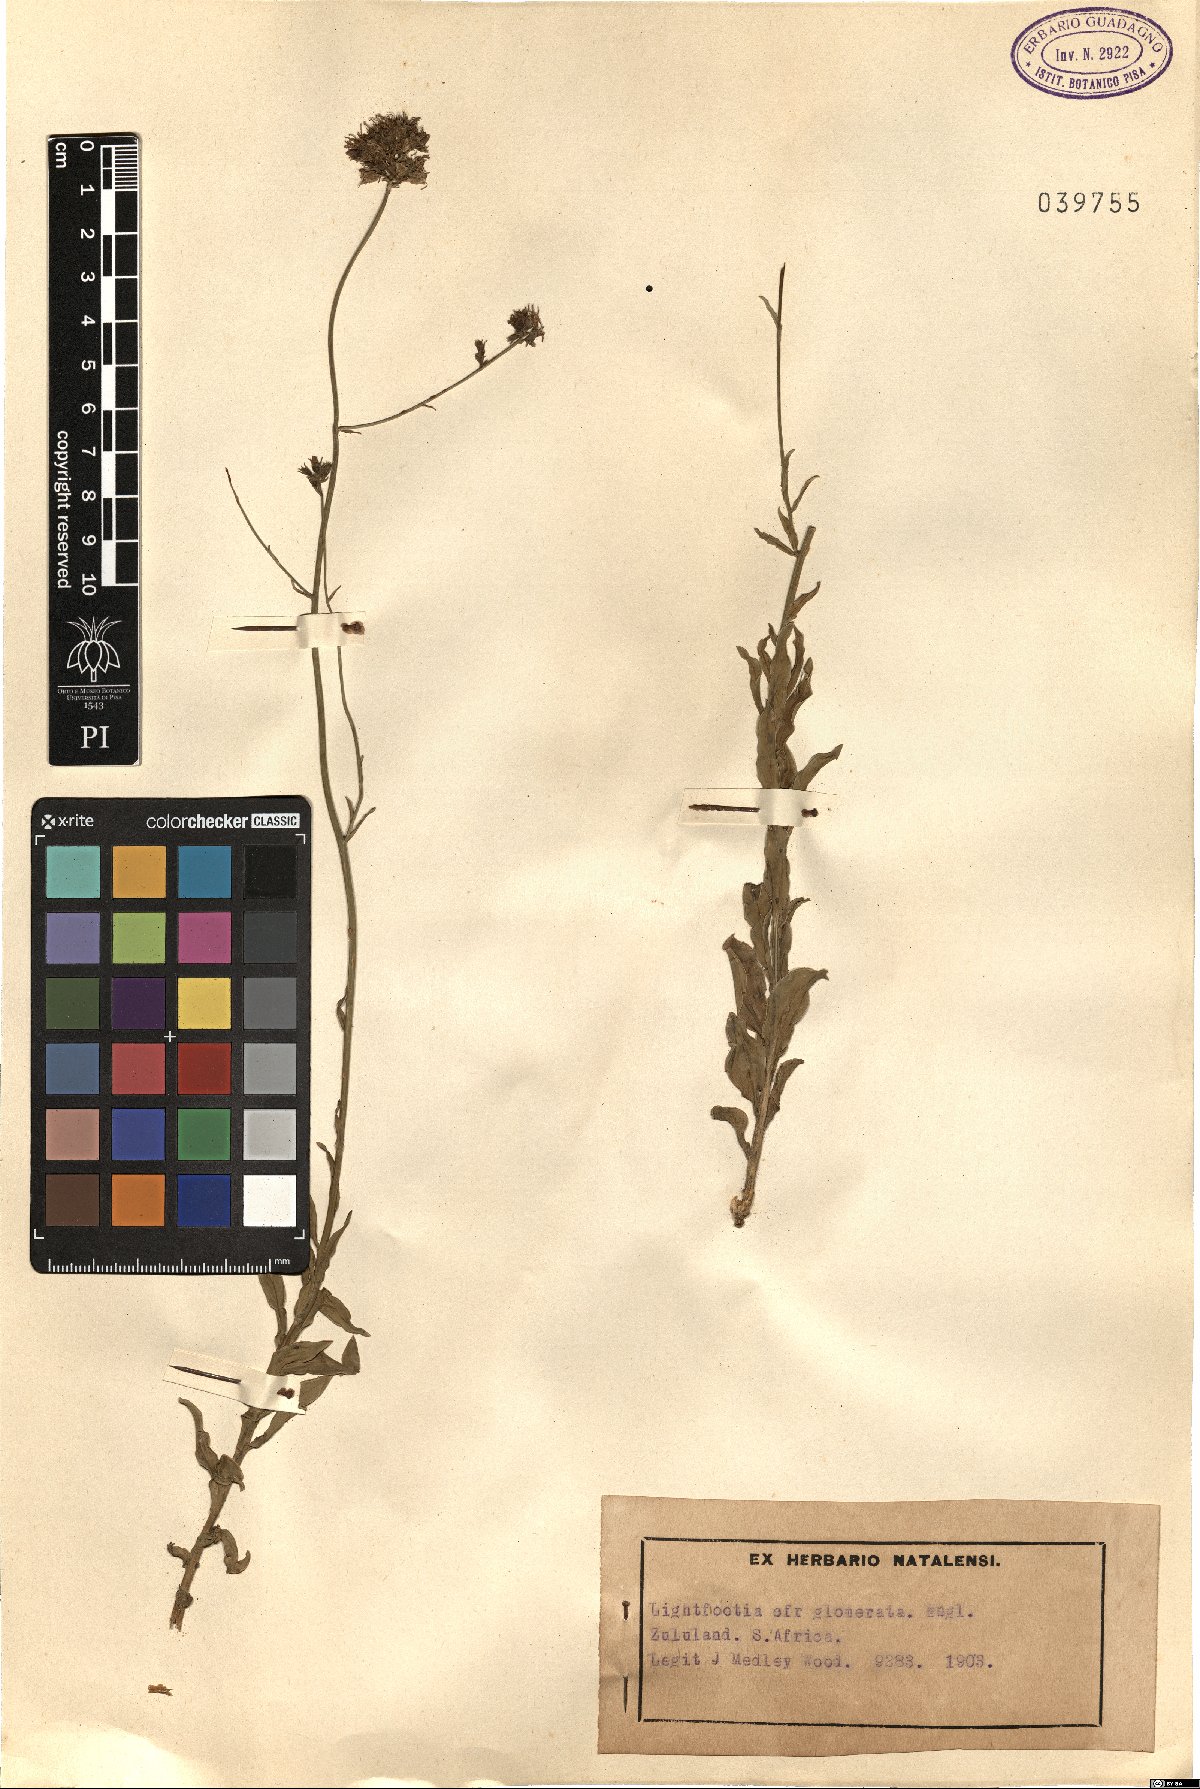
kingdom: Plantae
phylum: Tracheophyta
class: Magnoliopsida
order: Asterales
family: Campanulaceae
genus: Wahlenbergia
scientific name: Wahlenbergia napiformis
